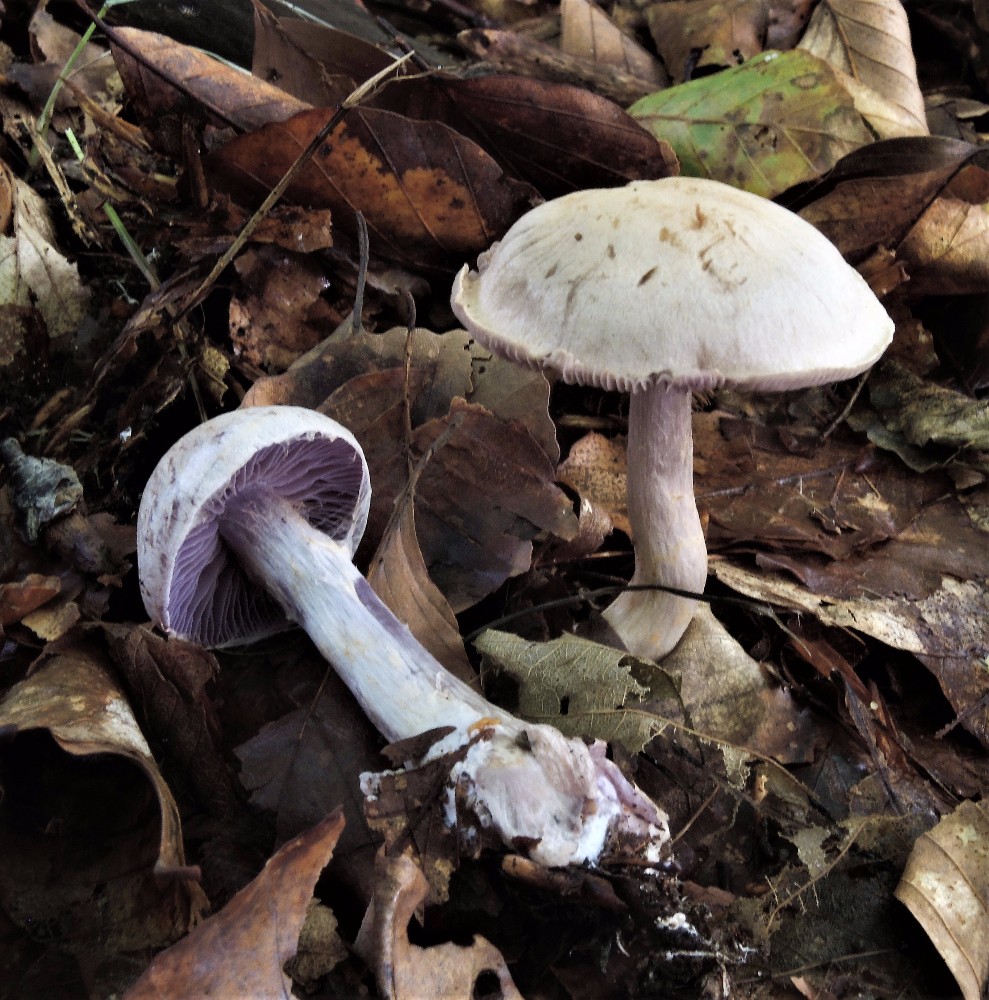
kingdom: Fungi
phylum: Basidiomycota
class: Agaricomycetes
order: Agaricales
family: Cortinariaceae
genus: Cortinarius
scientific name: Cortinarius alboviolaceus
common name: lysviolet slørhat
